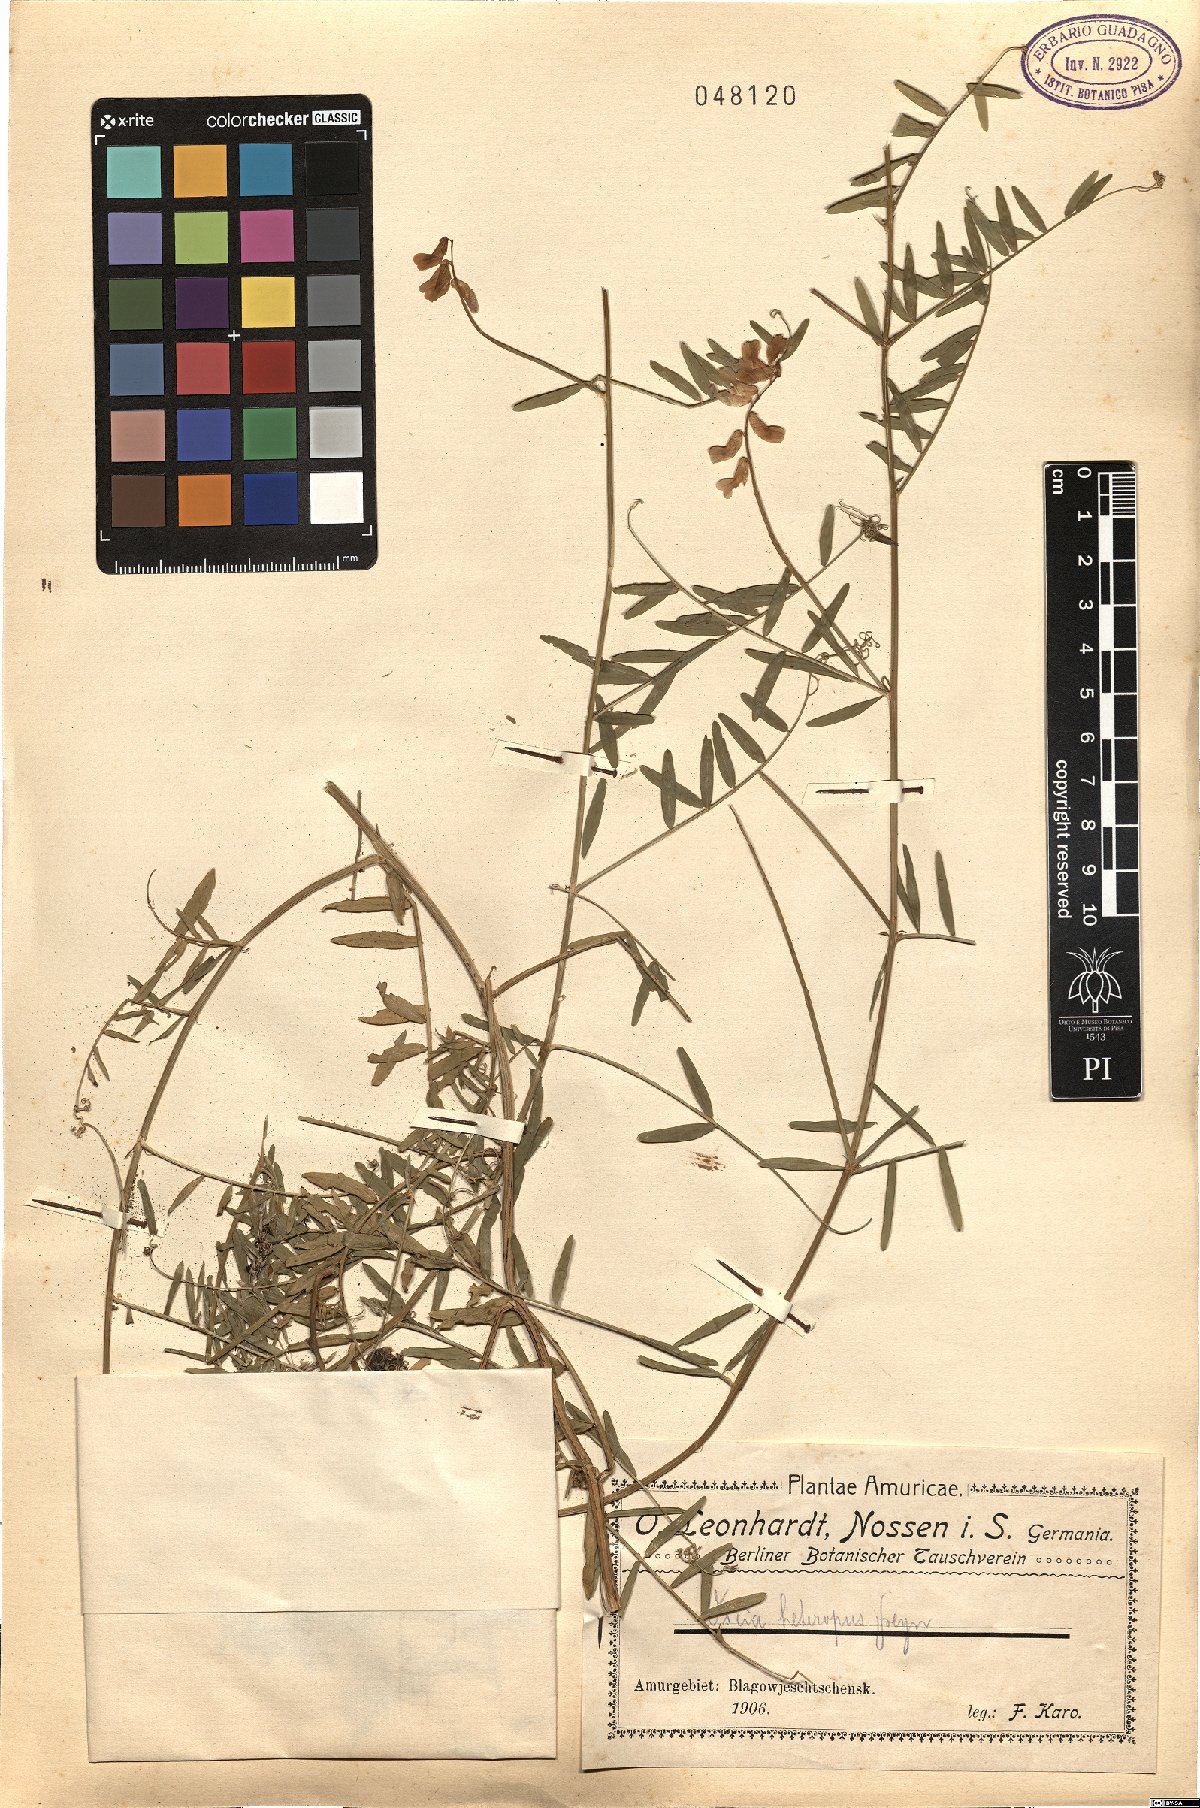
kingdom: Plantae
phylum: Tracheophyta
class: Magnoliopsida
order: Fabales
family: Fabaceae
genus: Vicia
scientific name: Vicia cracca
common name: Bird vetch
